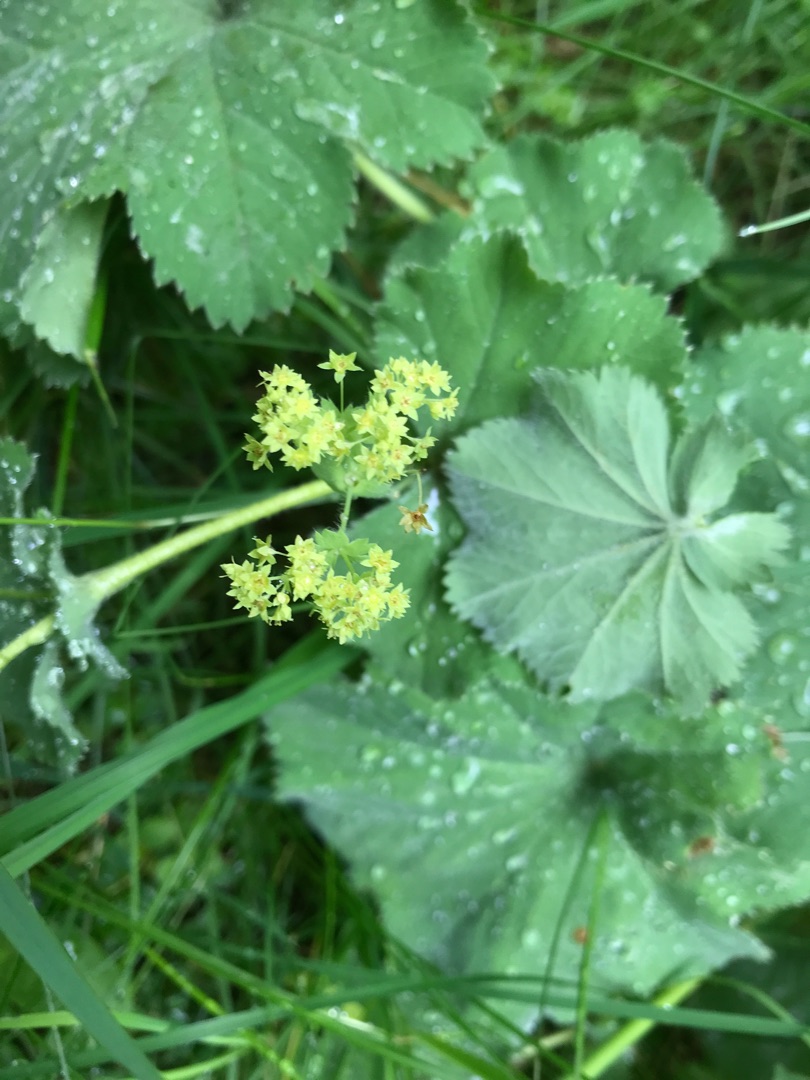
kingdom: Plantae
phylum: Tracheophyta
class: Magnoliopsida
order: Rosales
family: Rosaceae
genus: Alchemilla
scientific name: Alchemilla mollis
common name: Lådden løvefod
